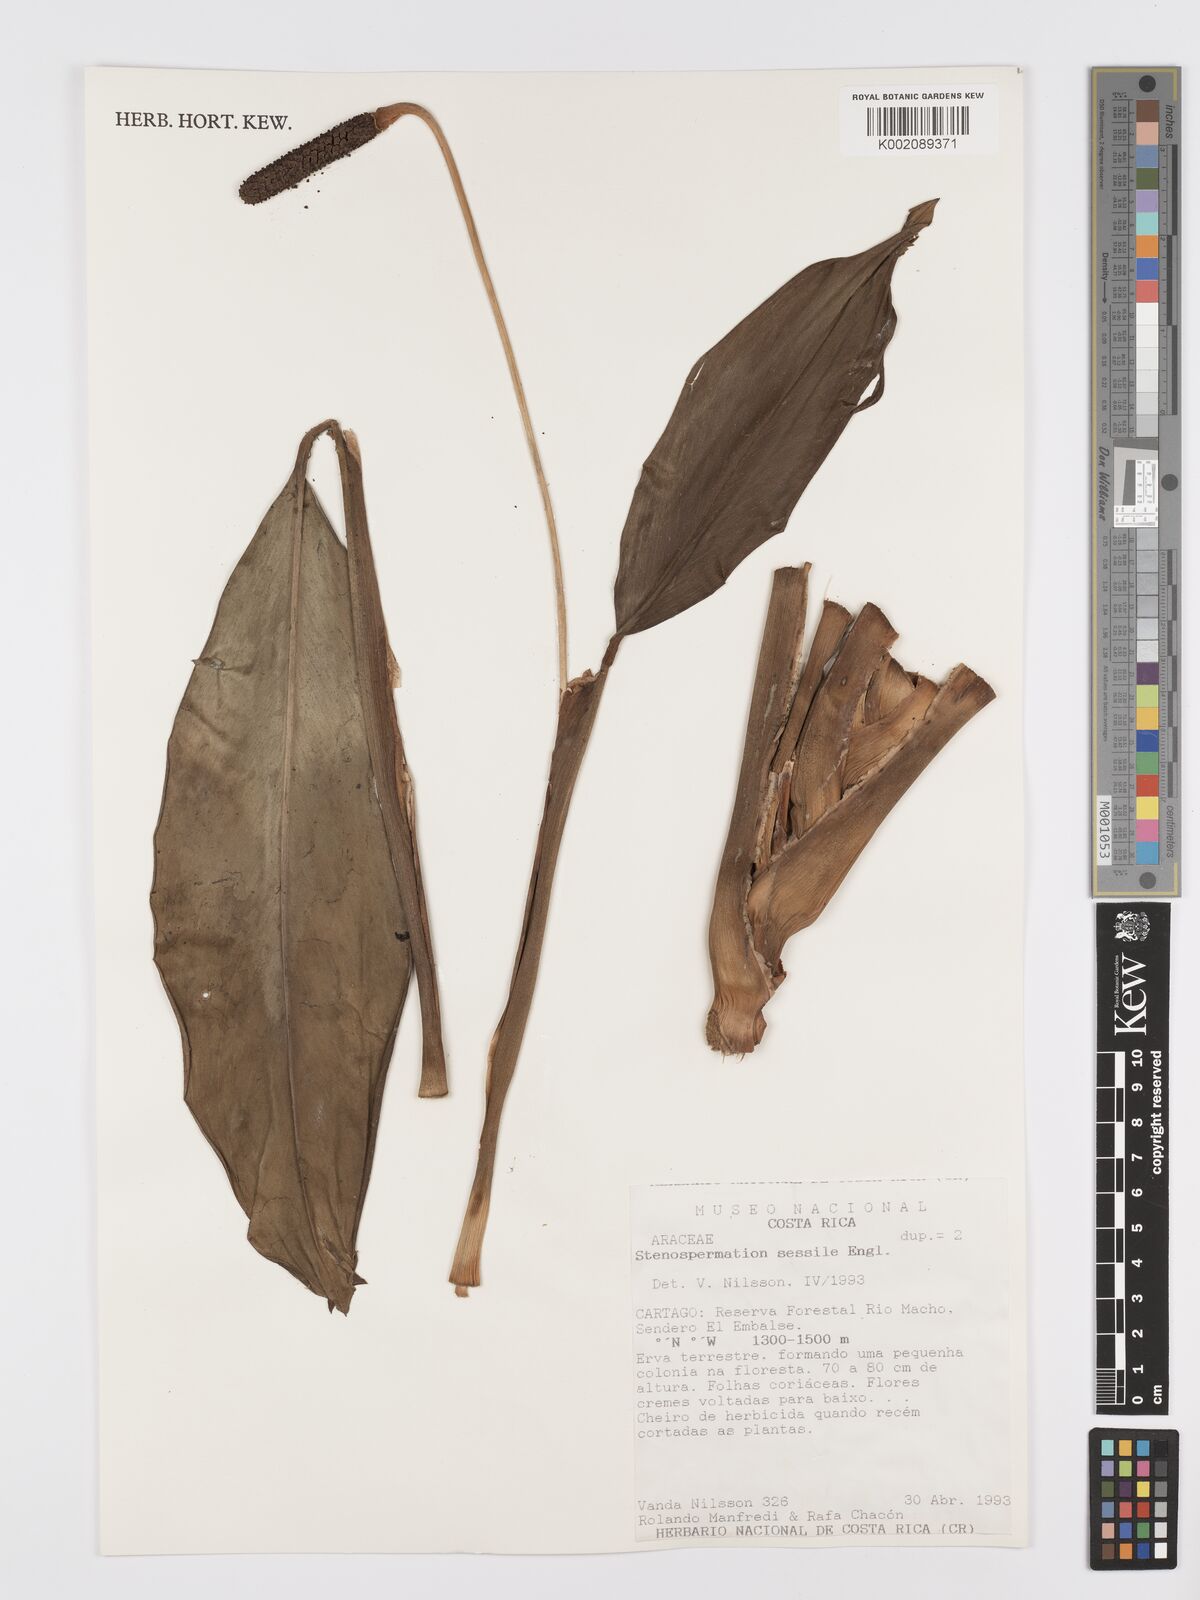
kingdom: Plantae
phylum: Tracheophyta
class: Liliopsida
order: Alismatales
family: Araceae
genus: Stenospermation
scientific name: Stenospermation sessile
